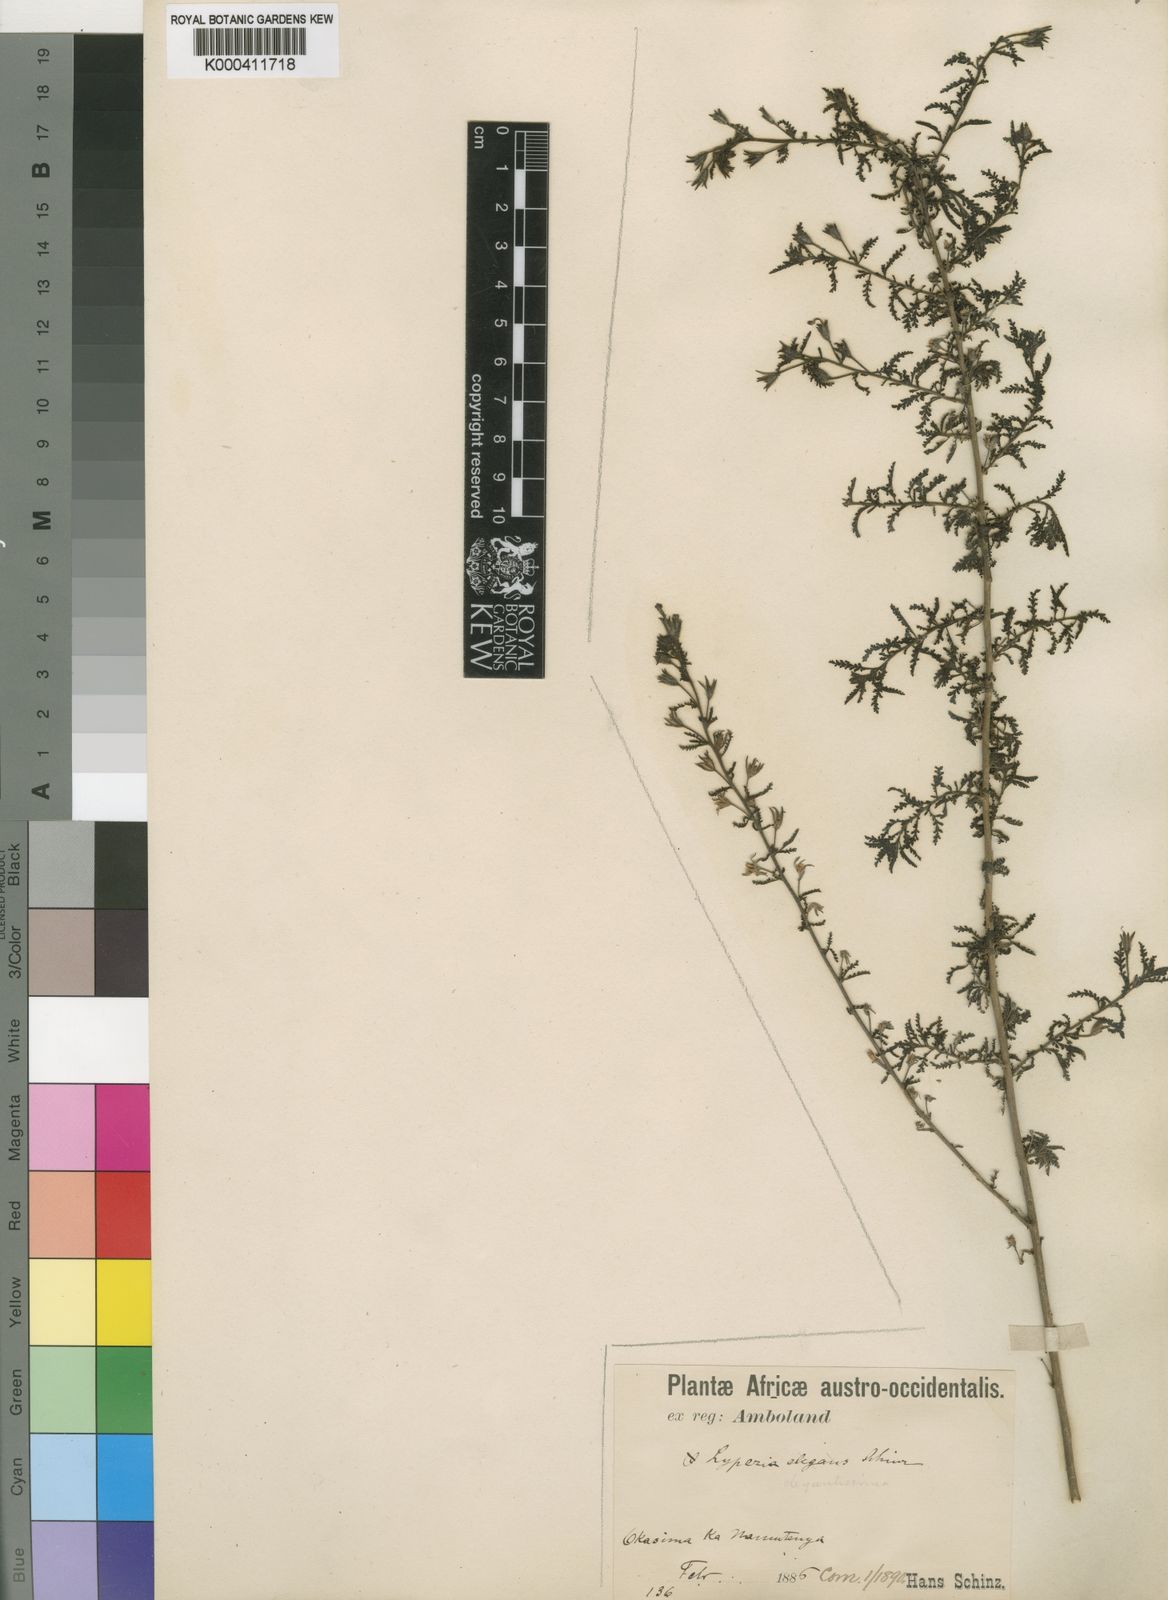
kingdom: Plantae
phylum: Tracheophyta
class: Magnoliopsida
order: Lamiales
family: Scrophulariaceae
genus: Jamesbrittenia
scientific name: Jamesbrittenia
